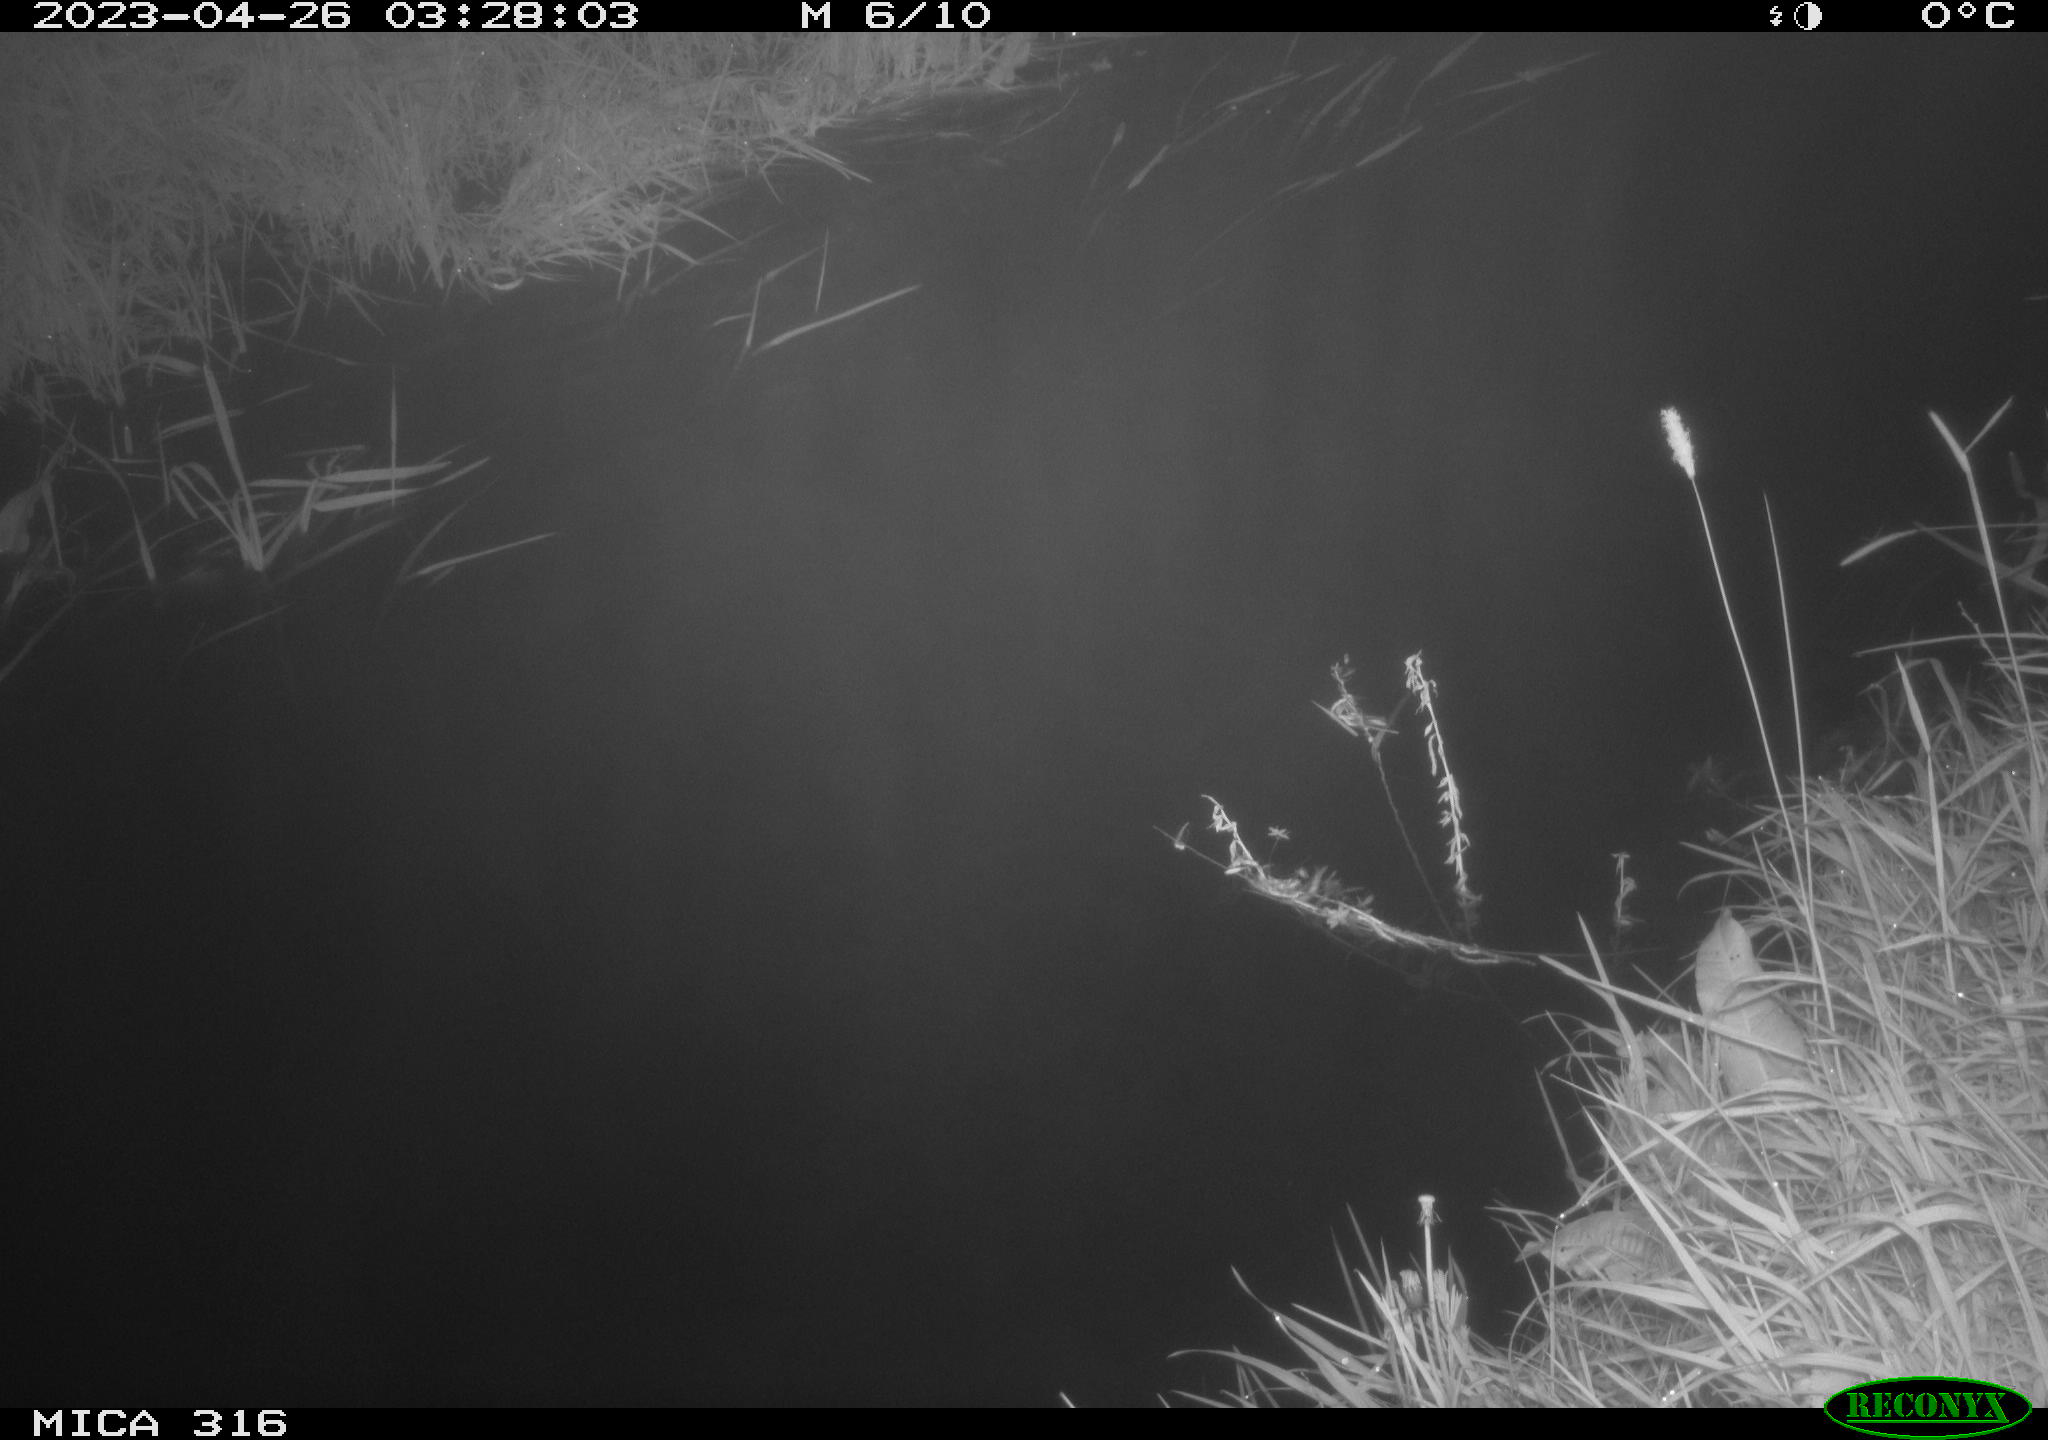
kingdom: Animalia
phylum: Chordata
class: Aves
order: Anseriformes
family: Anatidae
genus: Anas
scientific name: Anas
